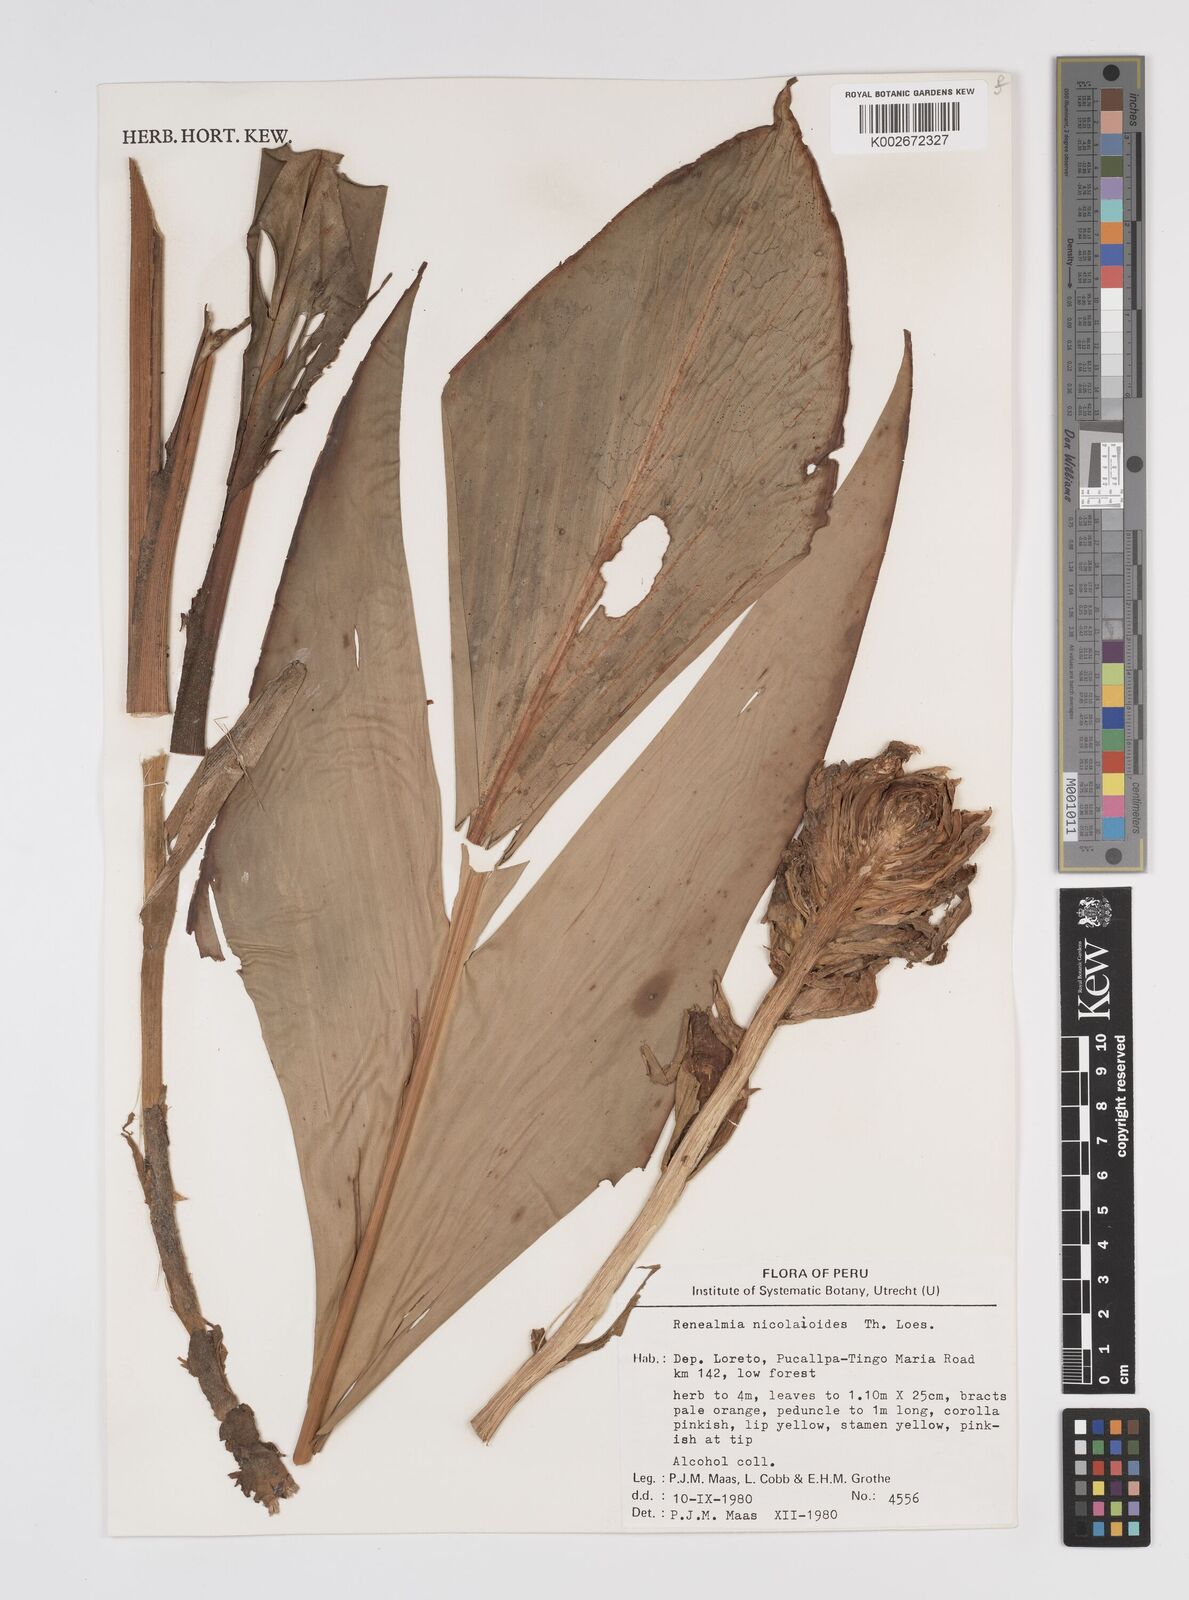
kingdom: Plantae
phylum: Tracheophyta
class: Liliopsida
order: Zingiberales
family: Zingiberaceae
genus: Renealmia
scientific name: Renealmia nicolaioides
